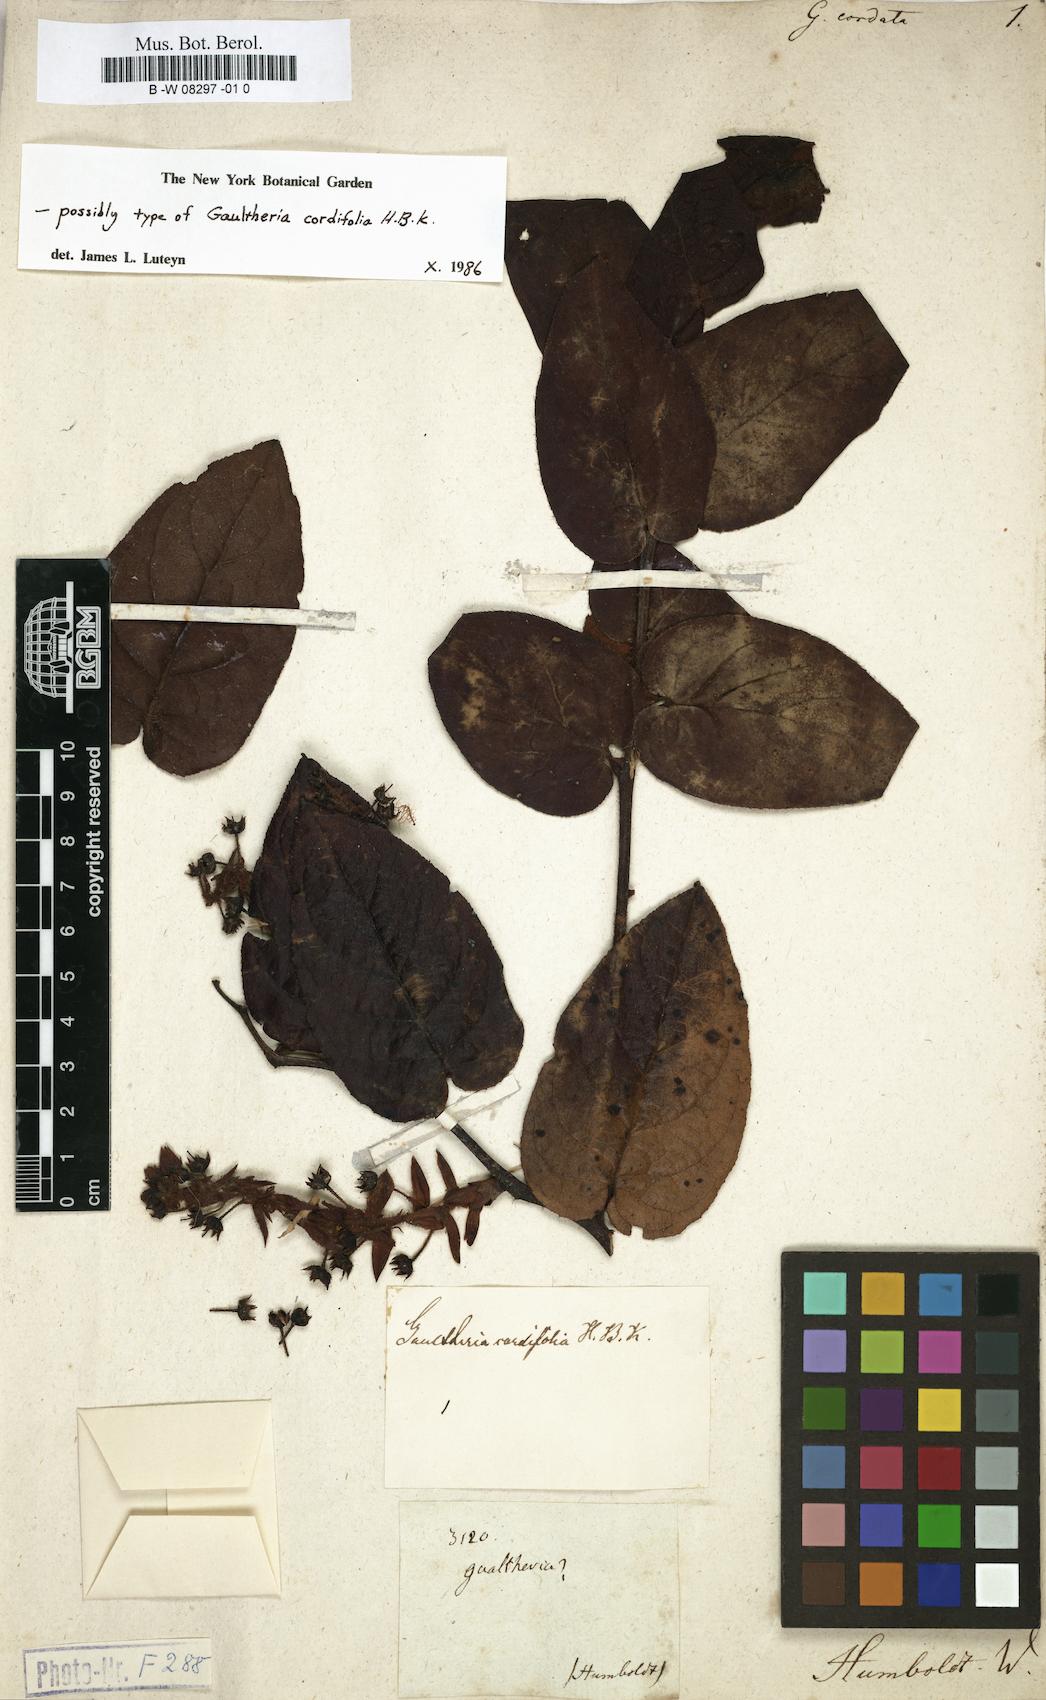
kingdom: Plantae
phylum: Tracheophyta
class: Magnoliopsida
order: Ericales
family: Ericaceae
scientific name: Ericaceae
